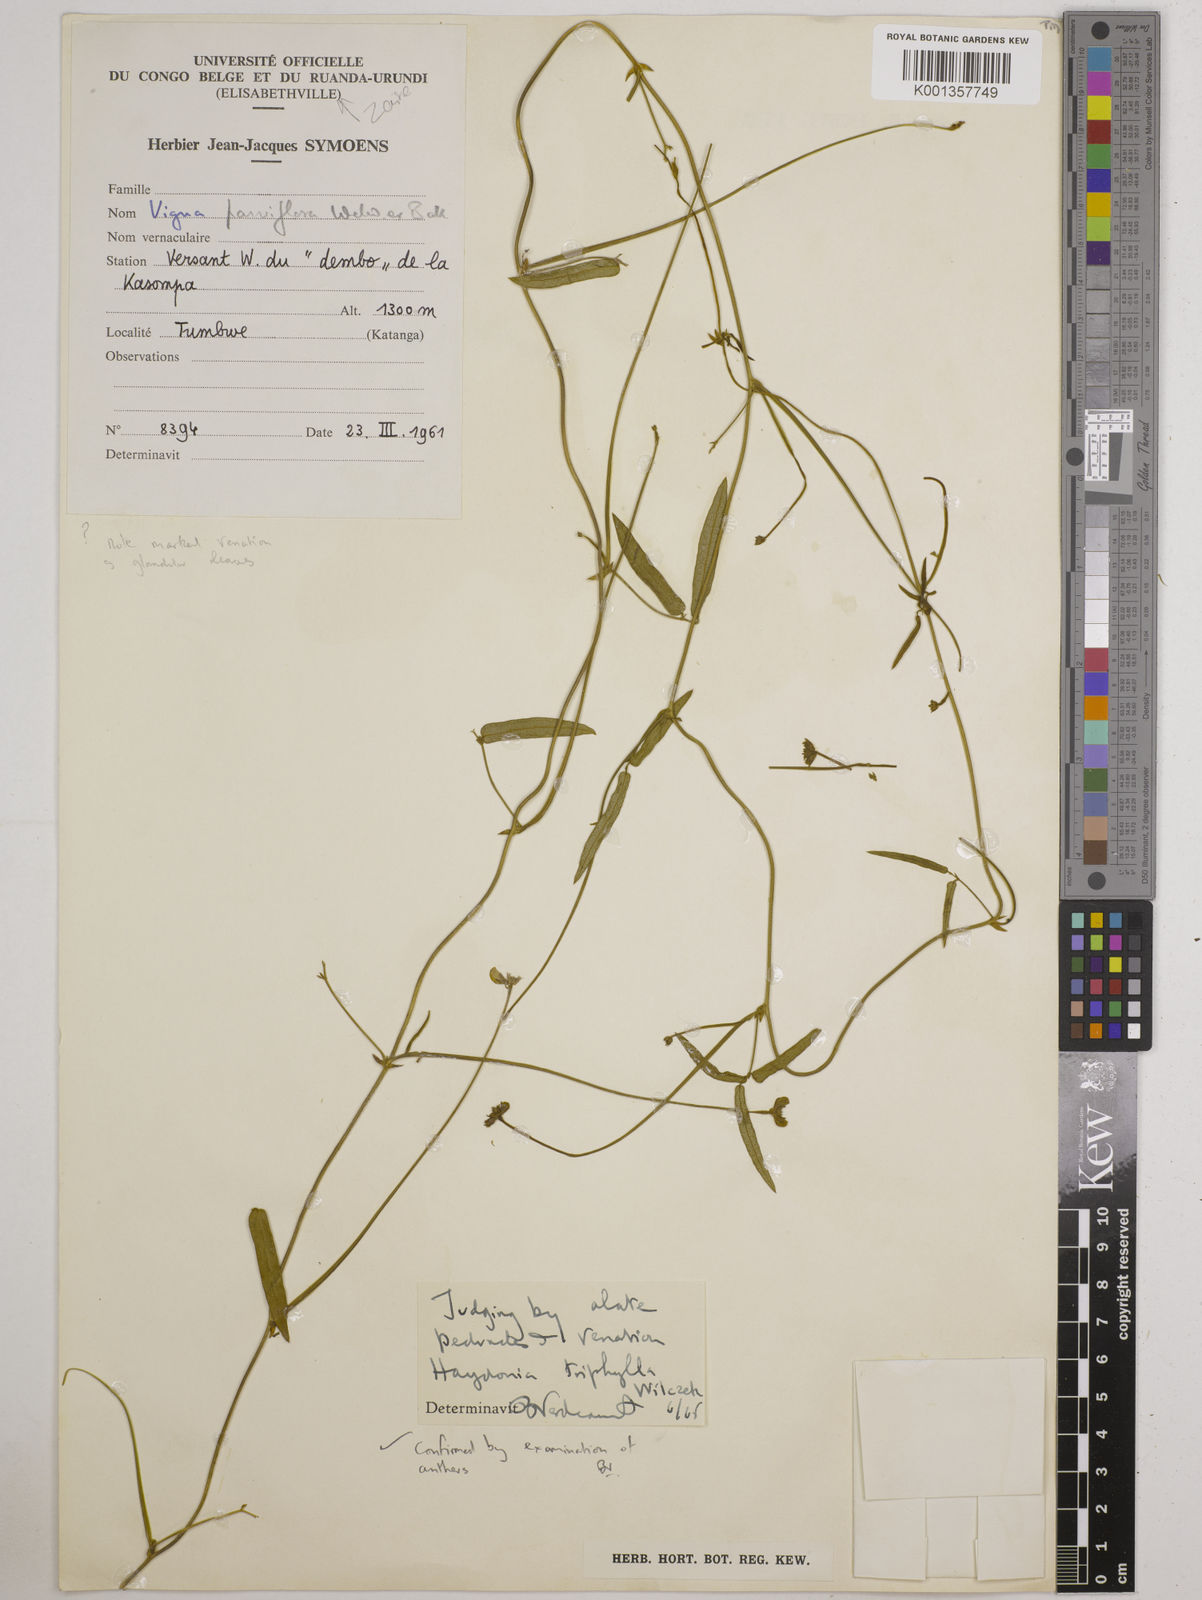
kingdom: Plantae
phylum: Tracheophyta
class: Magnoliopsida
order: Fabales
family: Fabaceae
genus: Vigna
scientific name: Vigna triphylla
